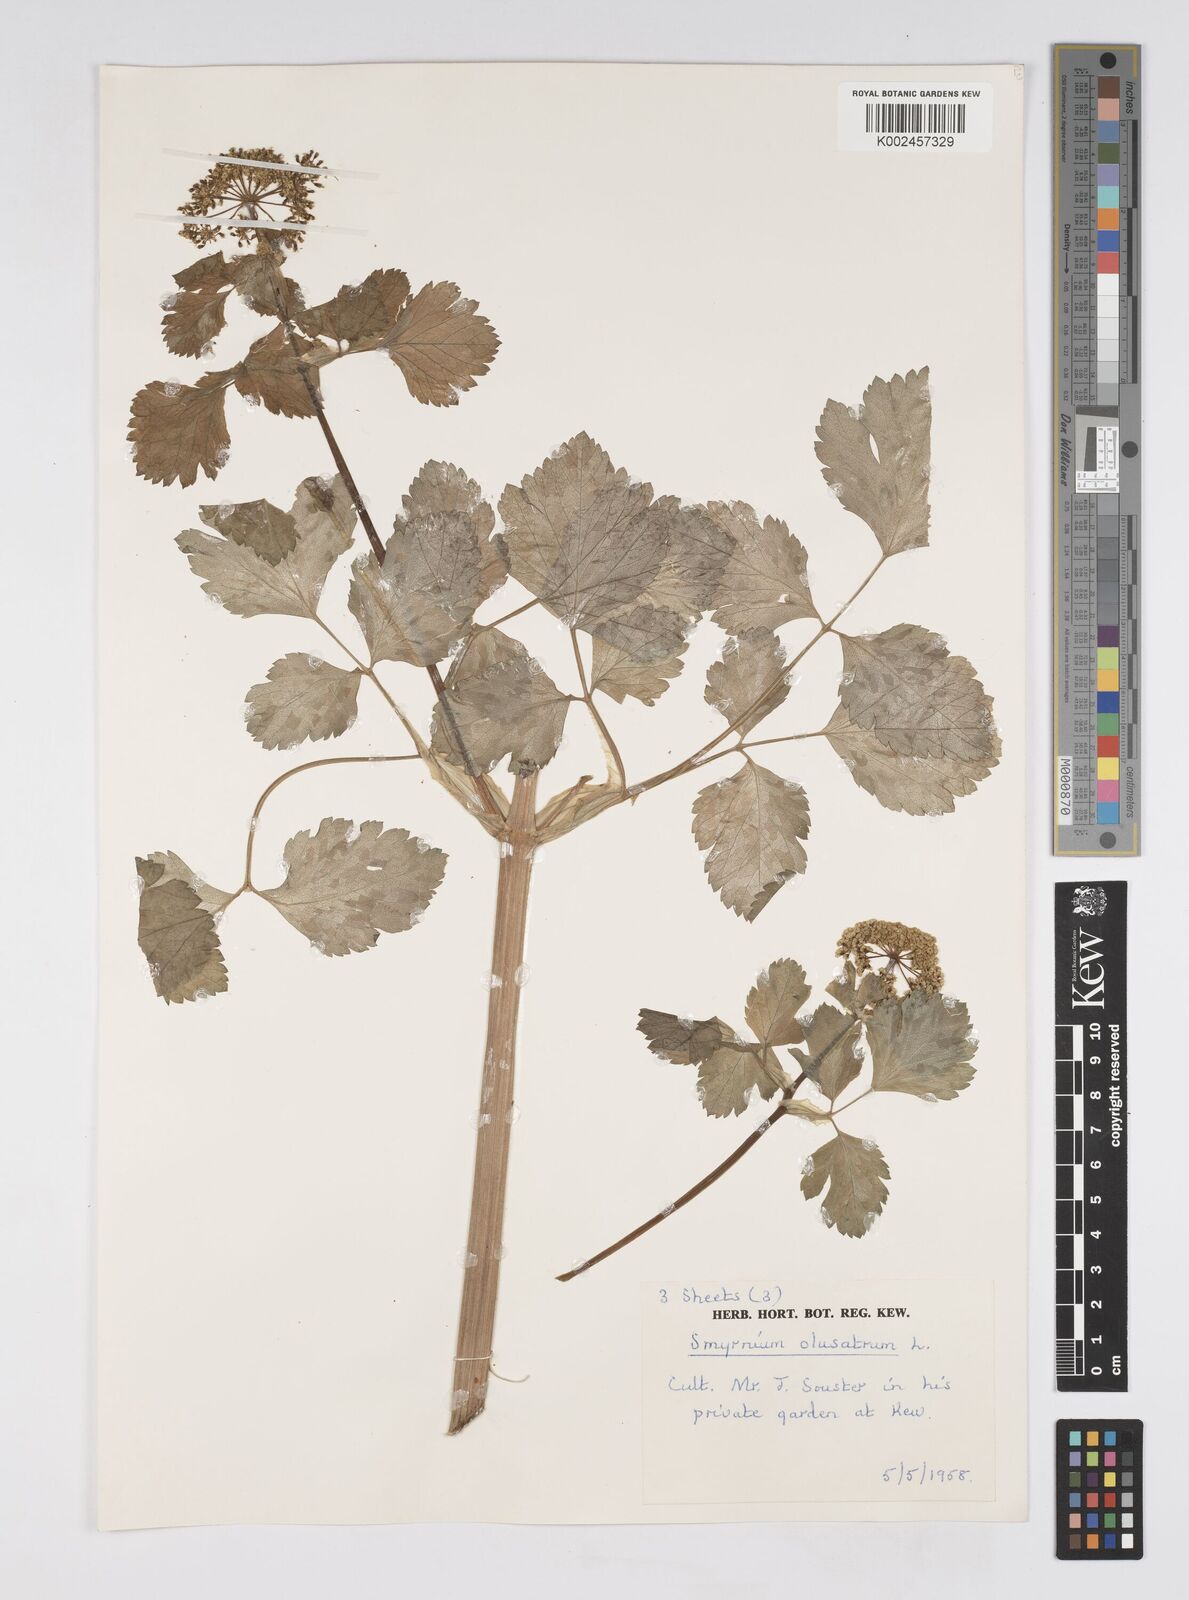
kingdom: Plantae
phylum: Tracheophyta
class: Magnoliopsida
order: Apiales
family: Apiaceae
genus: Smyrnium
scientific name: Smyrnium olusatrum
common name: Alexanders
